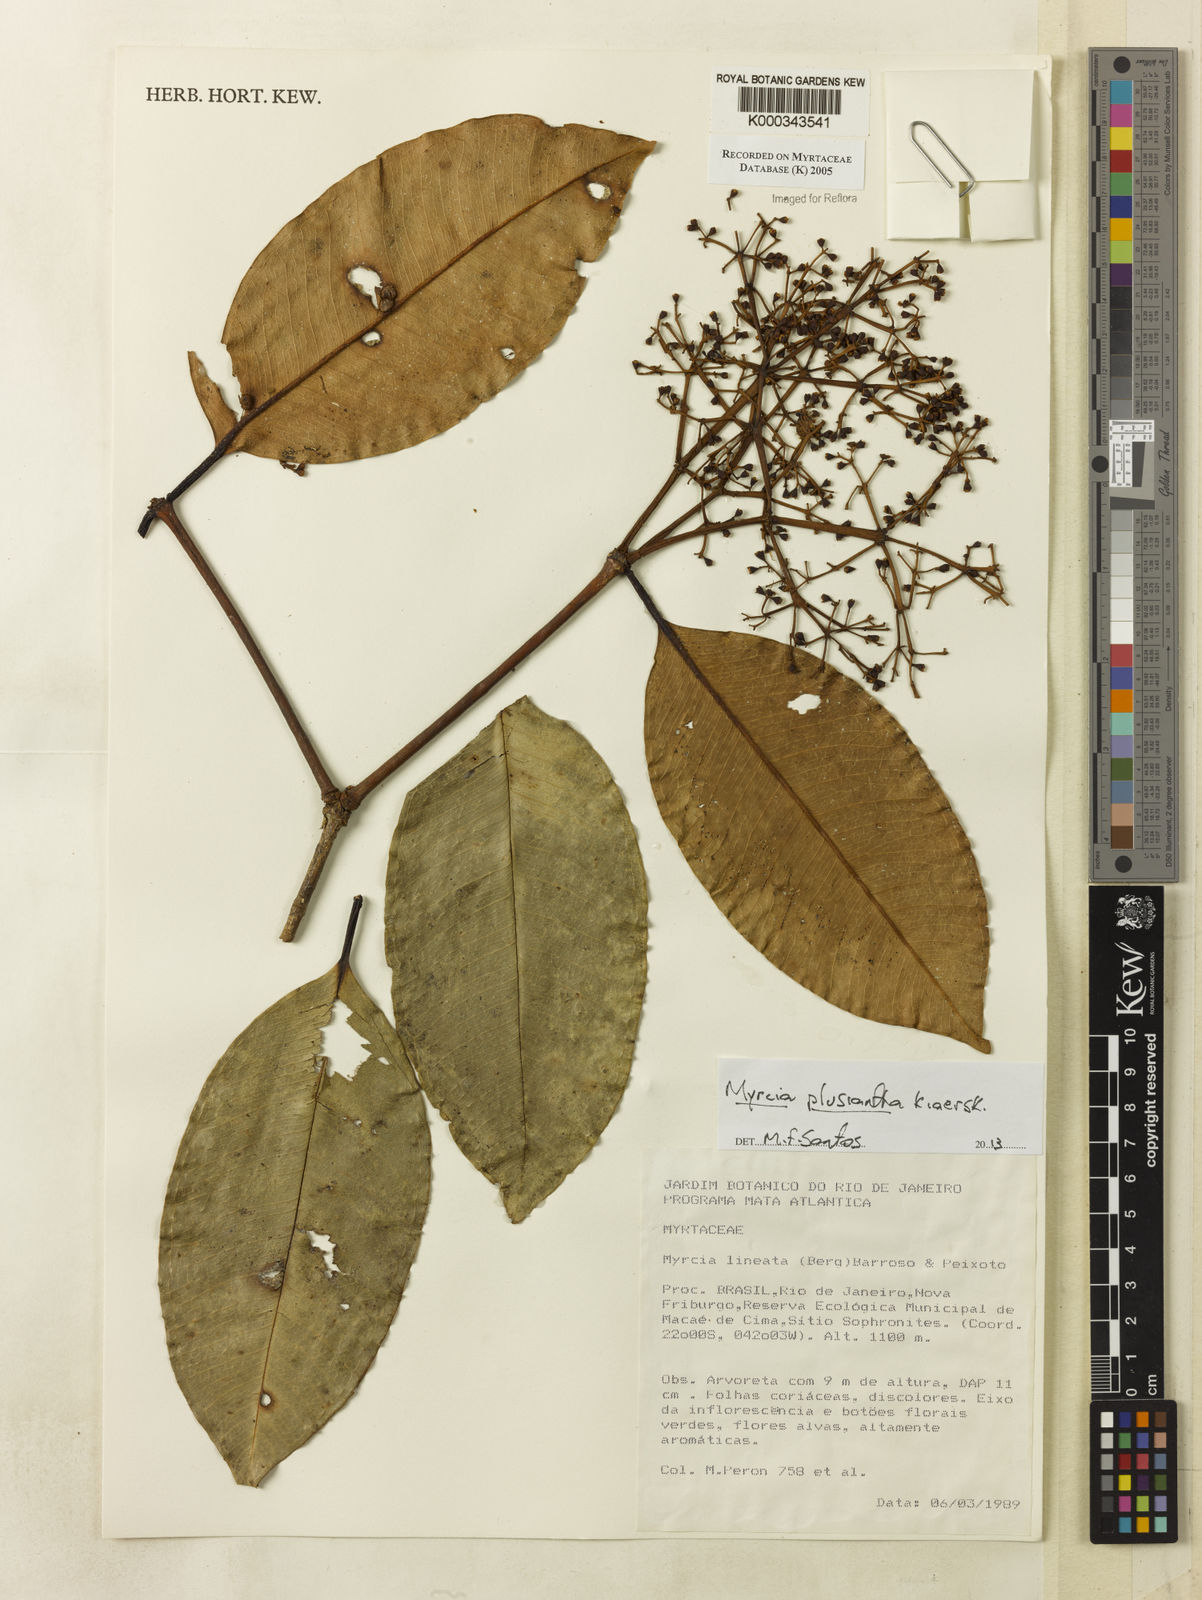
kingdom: Plantae
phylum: Tracheophyta
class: Magnoliopsida
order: Myrtales
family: Myrtaceae
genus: Myrcia
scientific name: Myrcia lineata
